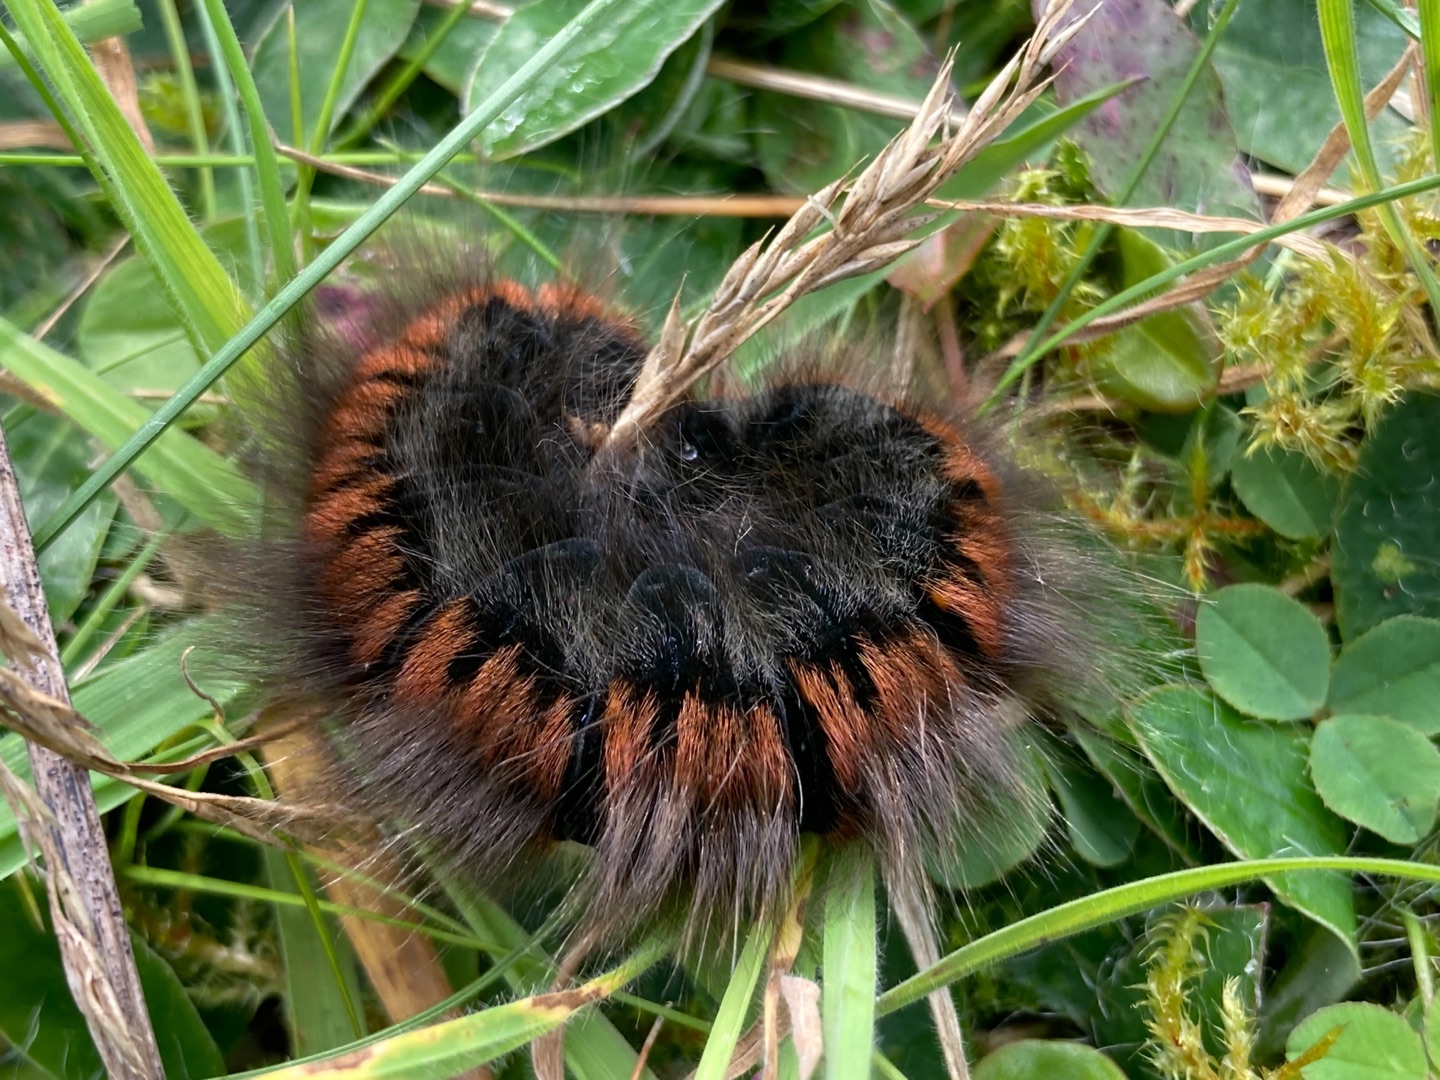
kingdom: Animalia
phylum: Arthropoda
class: Insecta
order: Lepidoptera
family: Lasiocampidae
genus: Macrothylacia
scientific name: Macrothylacia rubi
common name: Brombærspinder
